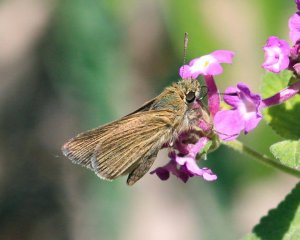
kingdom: Animalia
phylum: Arthropoda
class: Insecta
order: Lepidoptera
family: Hesperiidae
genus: Nastra
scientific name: Nastra julia
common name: Julia's Skipper
